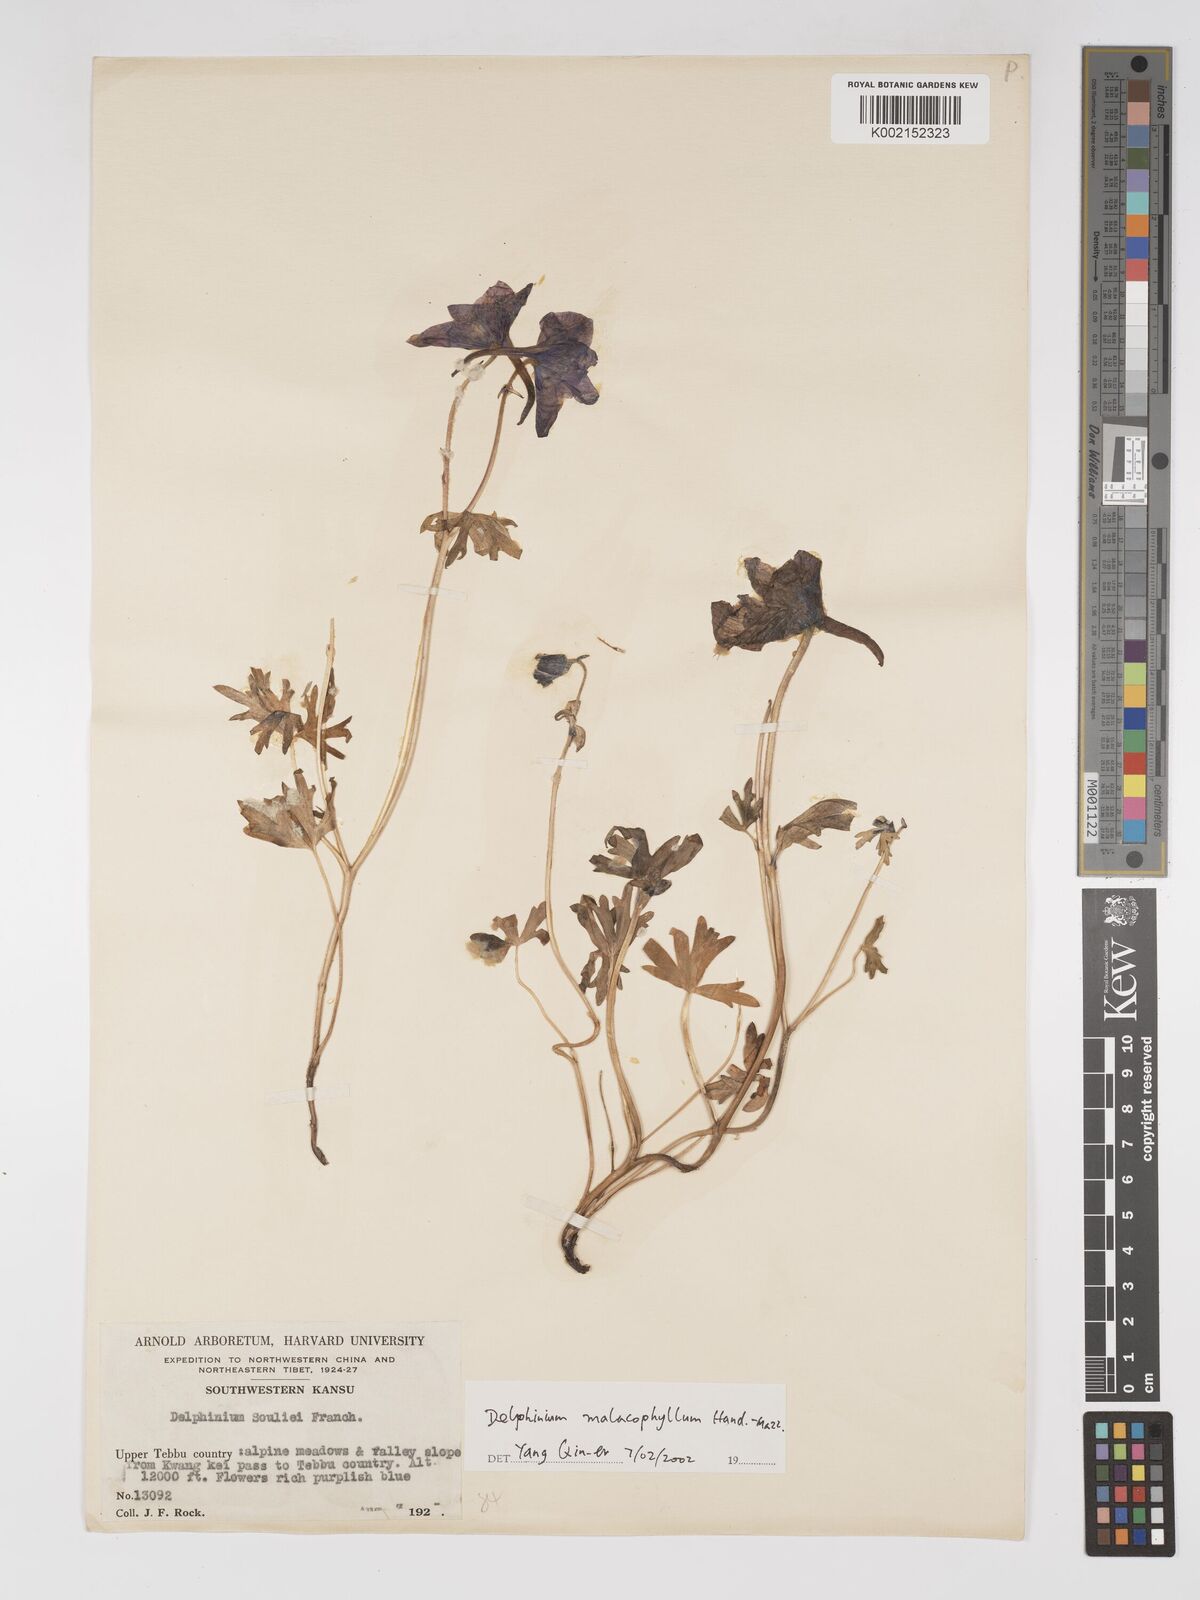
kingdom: Plantae
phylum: Tracheophyta
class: Magnoliopsida
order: Ranunculales
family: Ranunculaceae
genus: Delphinium
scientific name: Delphinium malacophyllum
